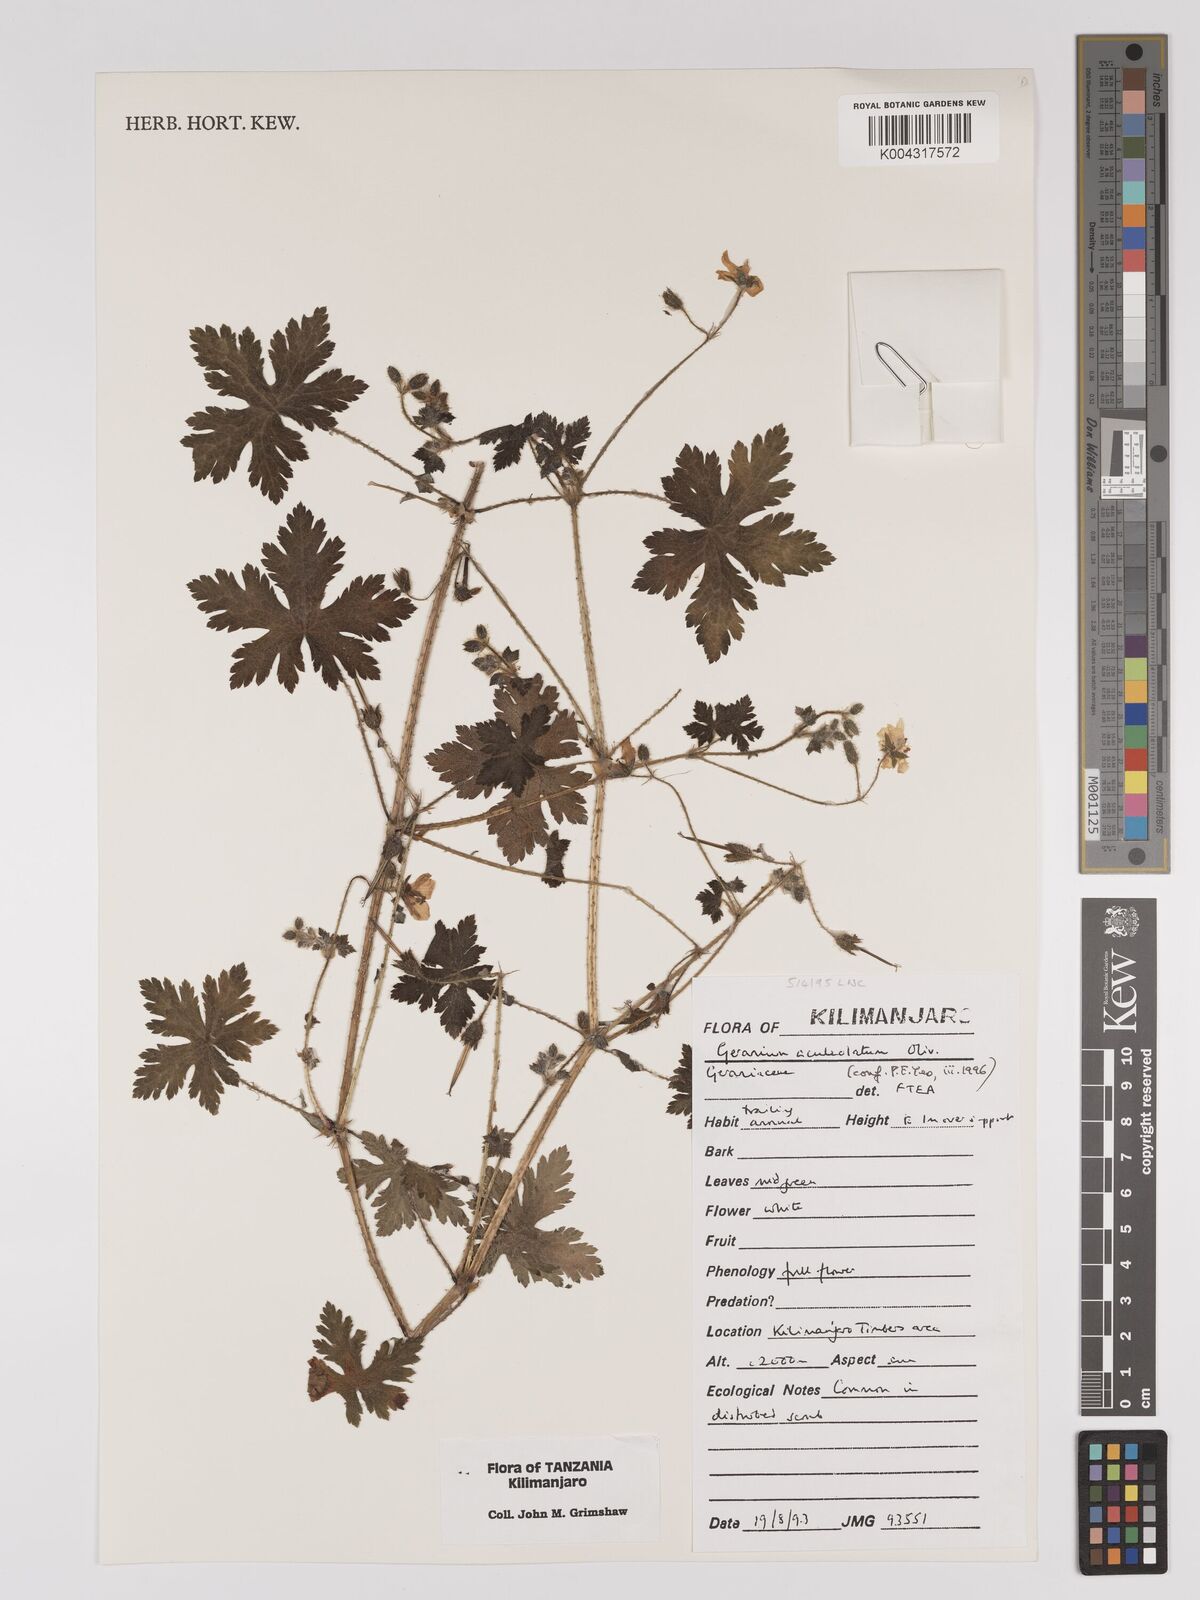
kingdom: Plantae
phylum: Tracheophyta
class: Magnoliopsida
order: Geraniales
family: Geraniaceae
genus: Geranium
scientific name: Geranium aculeolatum
